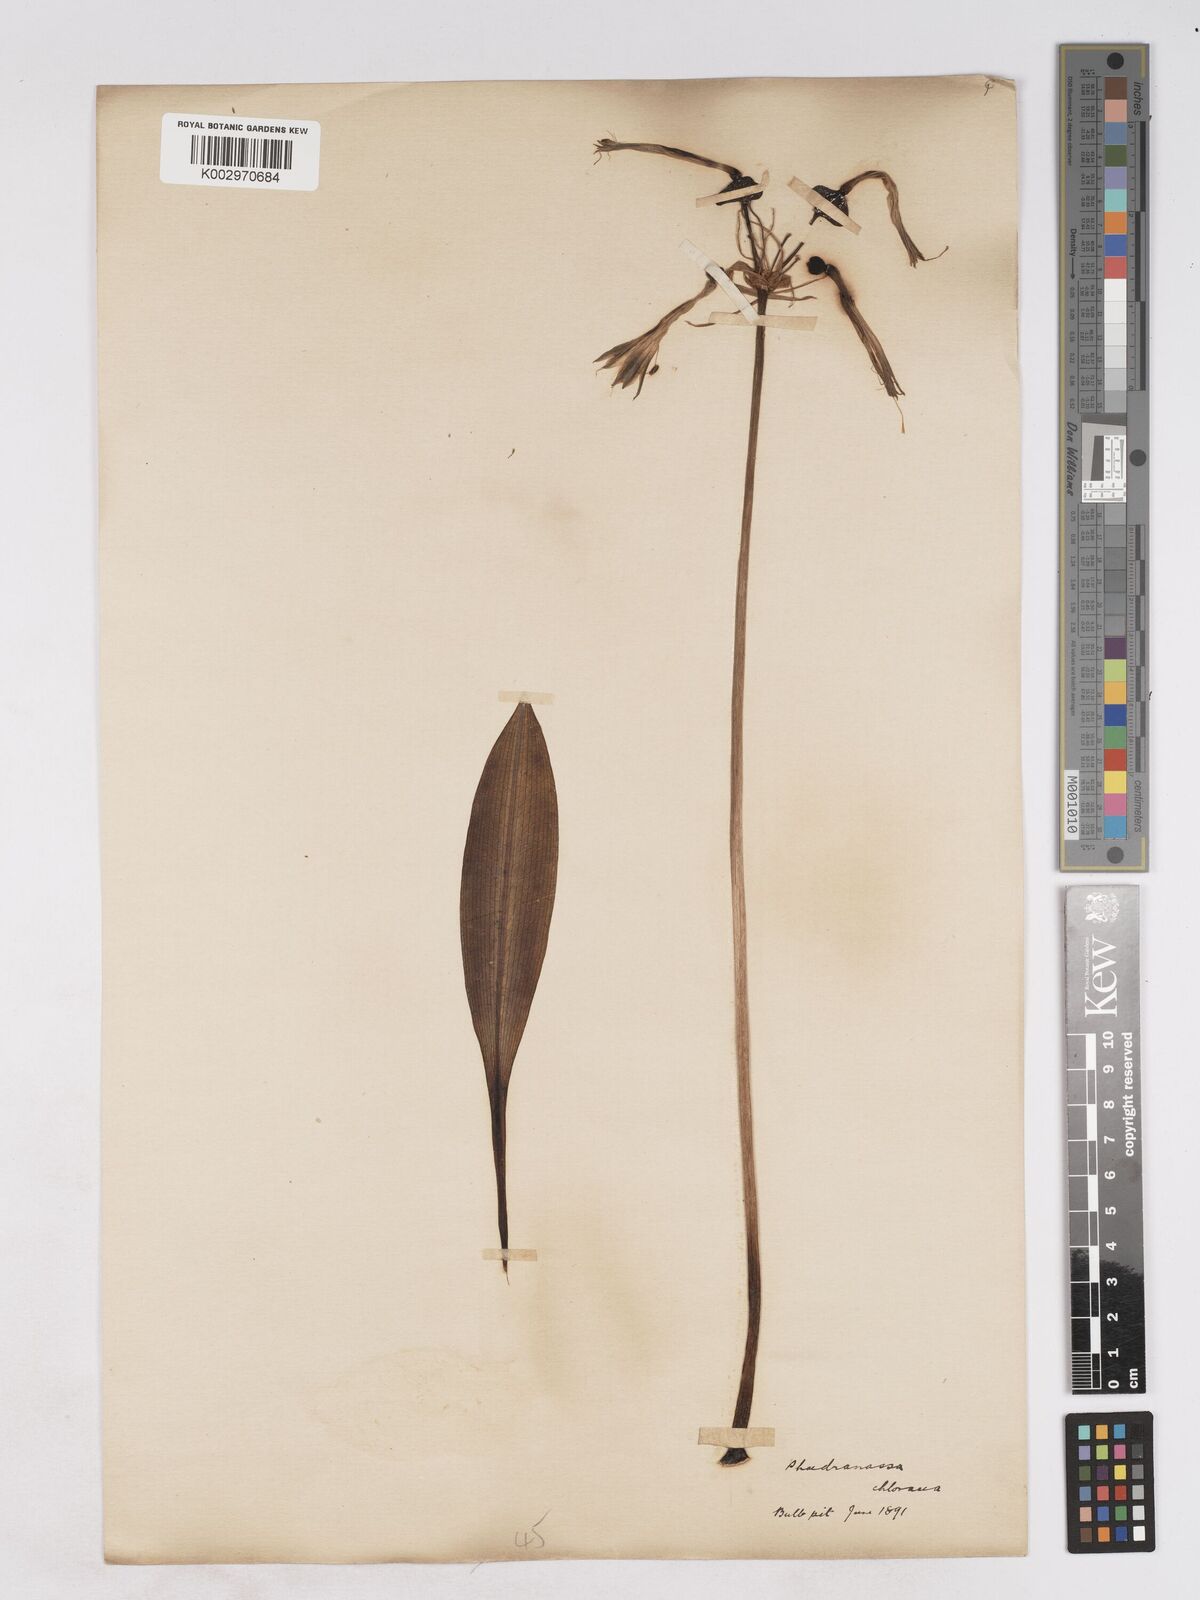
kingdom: Plantae
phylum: Tracheophyta
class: Liliopsida
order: Asparagales
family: Amaryllidaceae
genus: Phaedranassa
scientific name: Phaedranassa dubia
